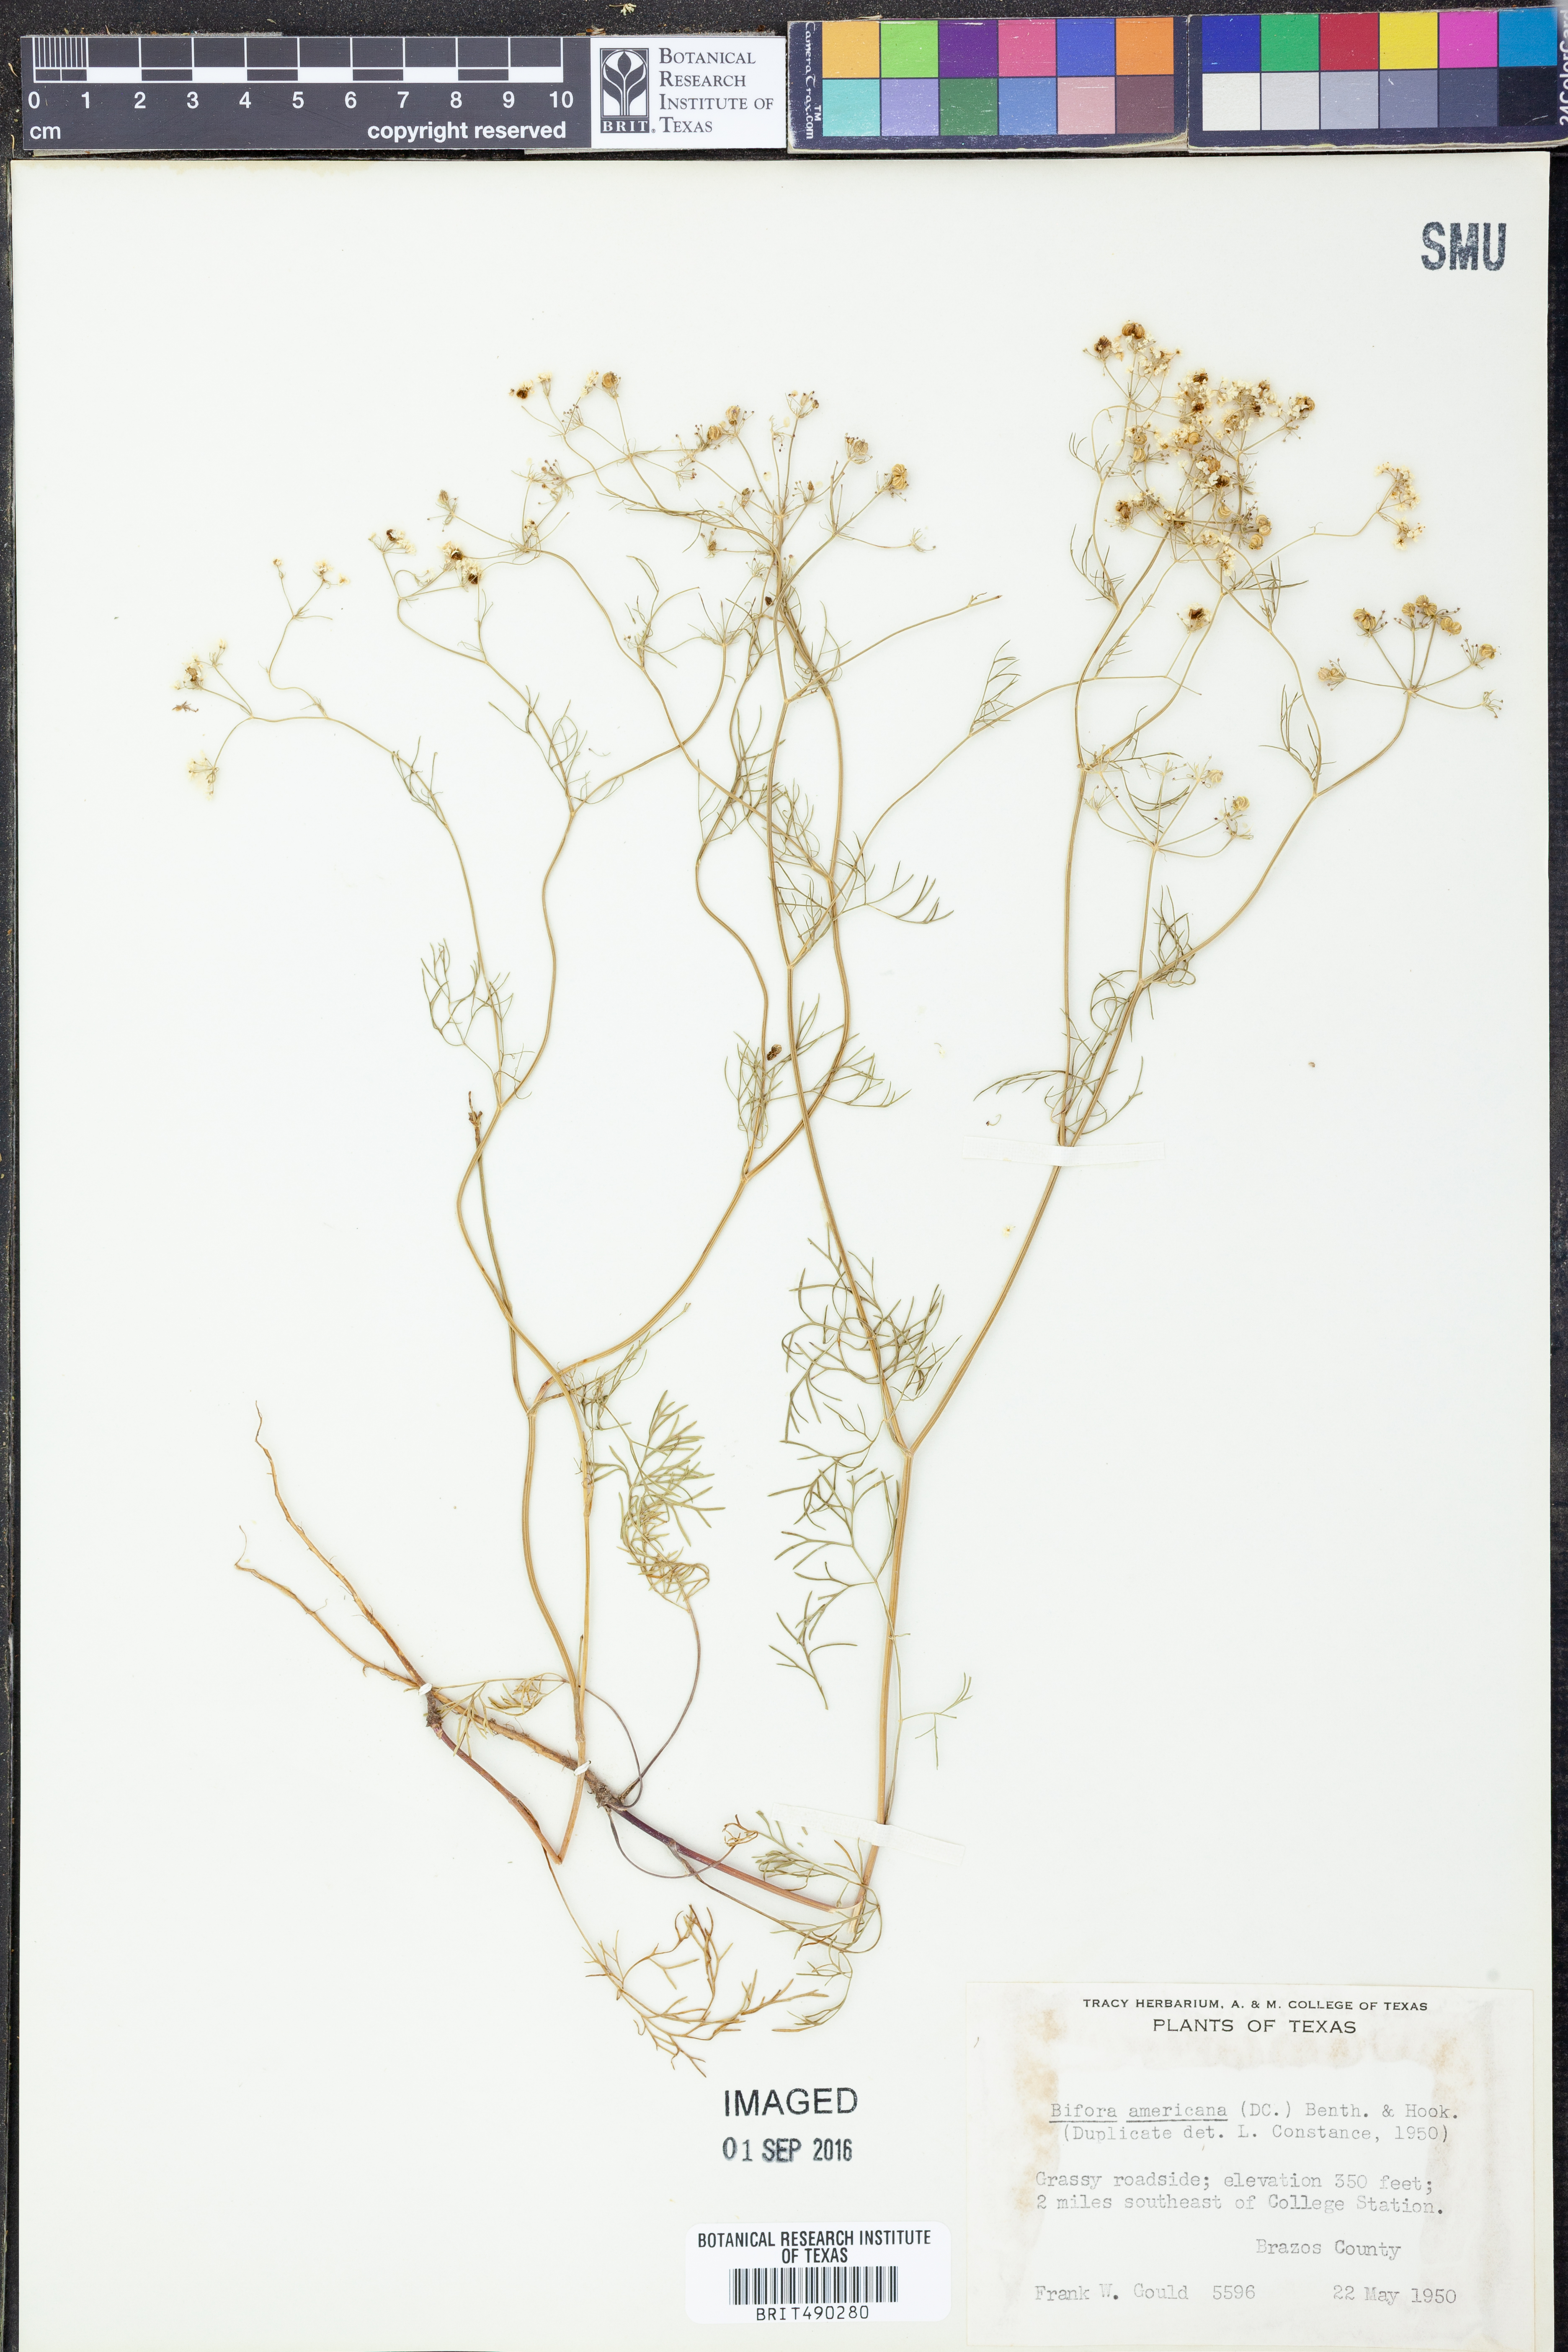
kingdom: Plantae
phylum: Tracheophyta
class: Magnoliopsida
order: Apiales
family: Apiaceae
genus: Atrema
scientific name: Atrema americanum
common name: Prairie-bishop
